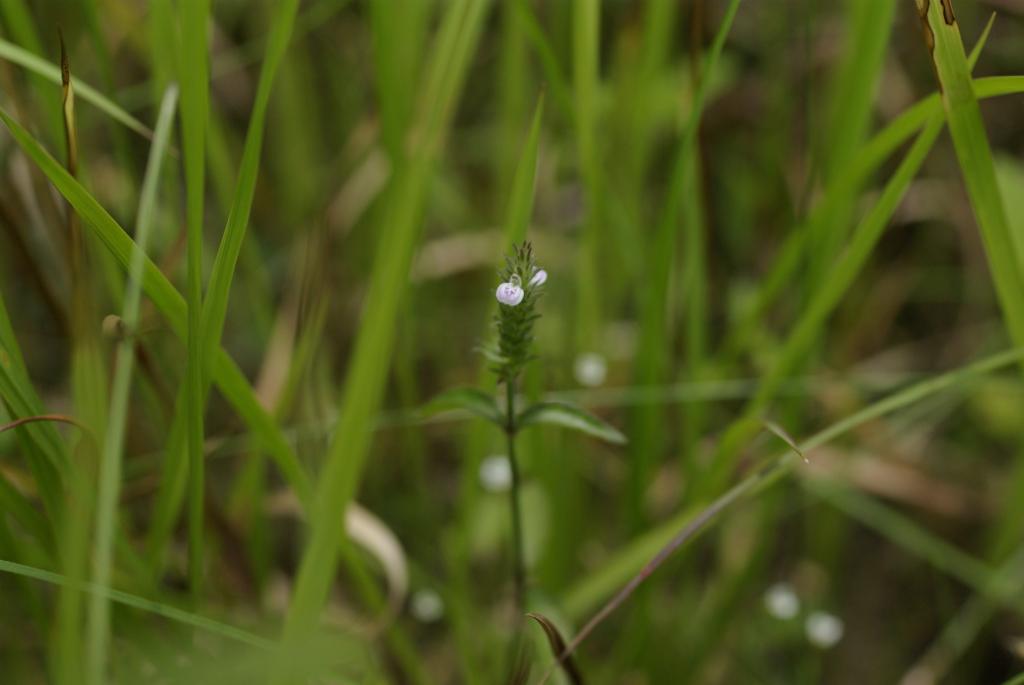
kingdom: Plantae
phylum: Tracheophyta
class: Magnoliopsida
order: Lamiales
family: Acanthaceae
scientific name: Acanthaceae
